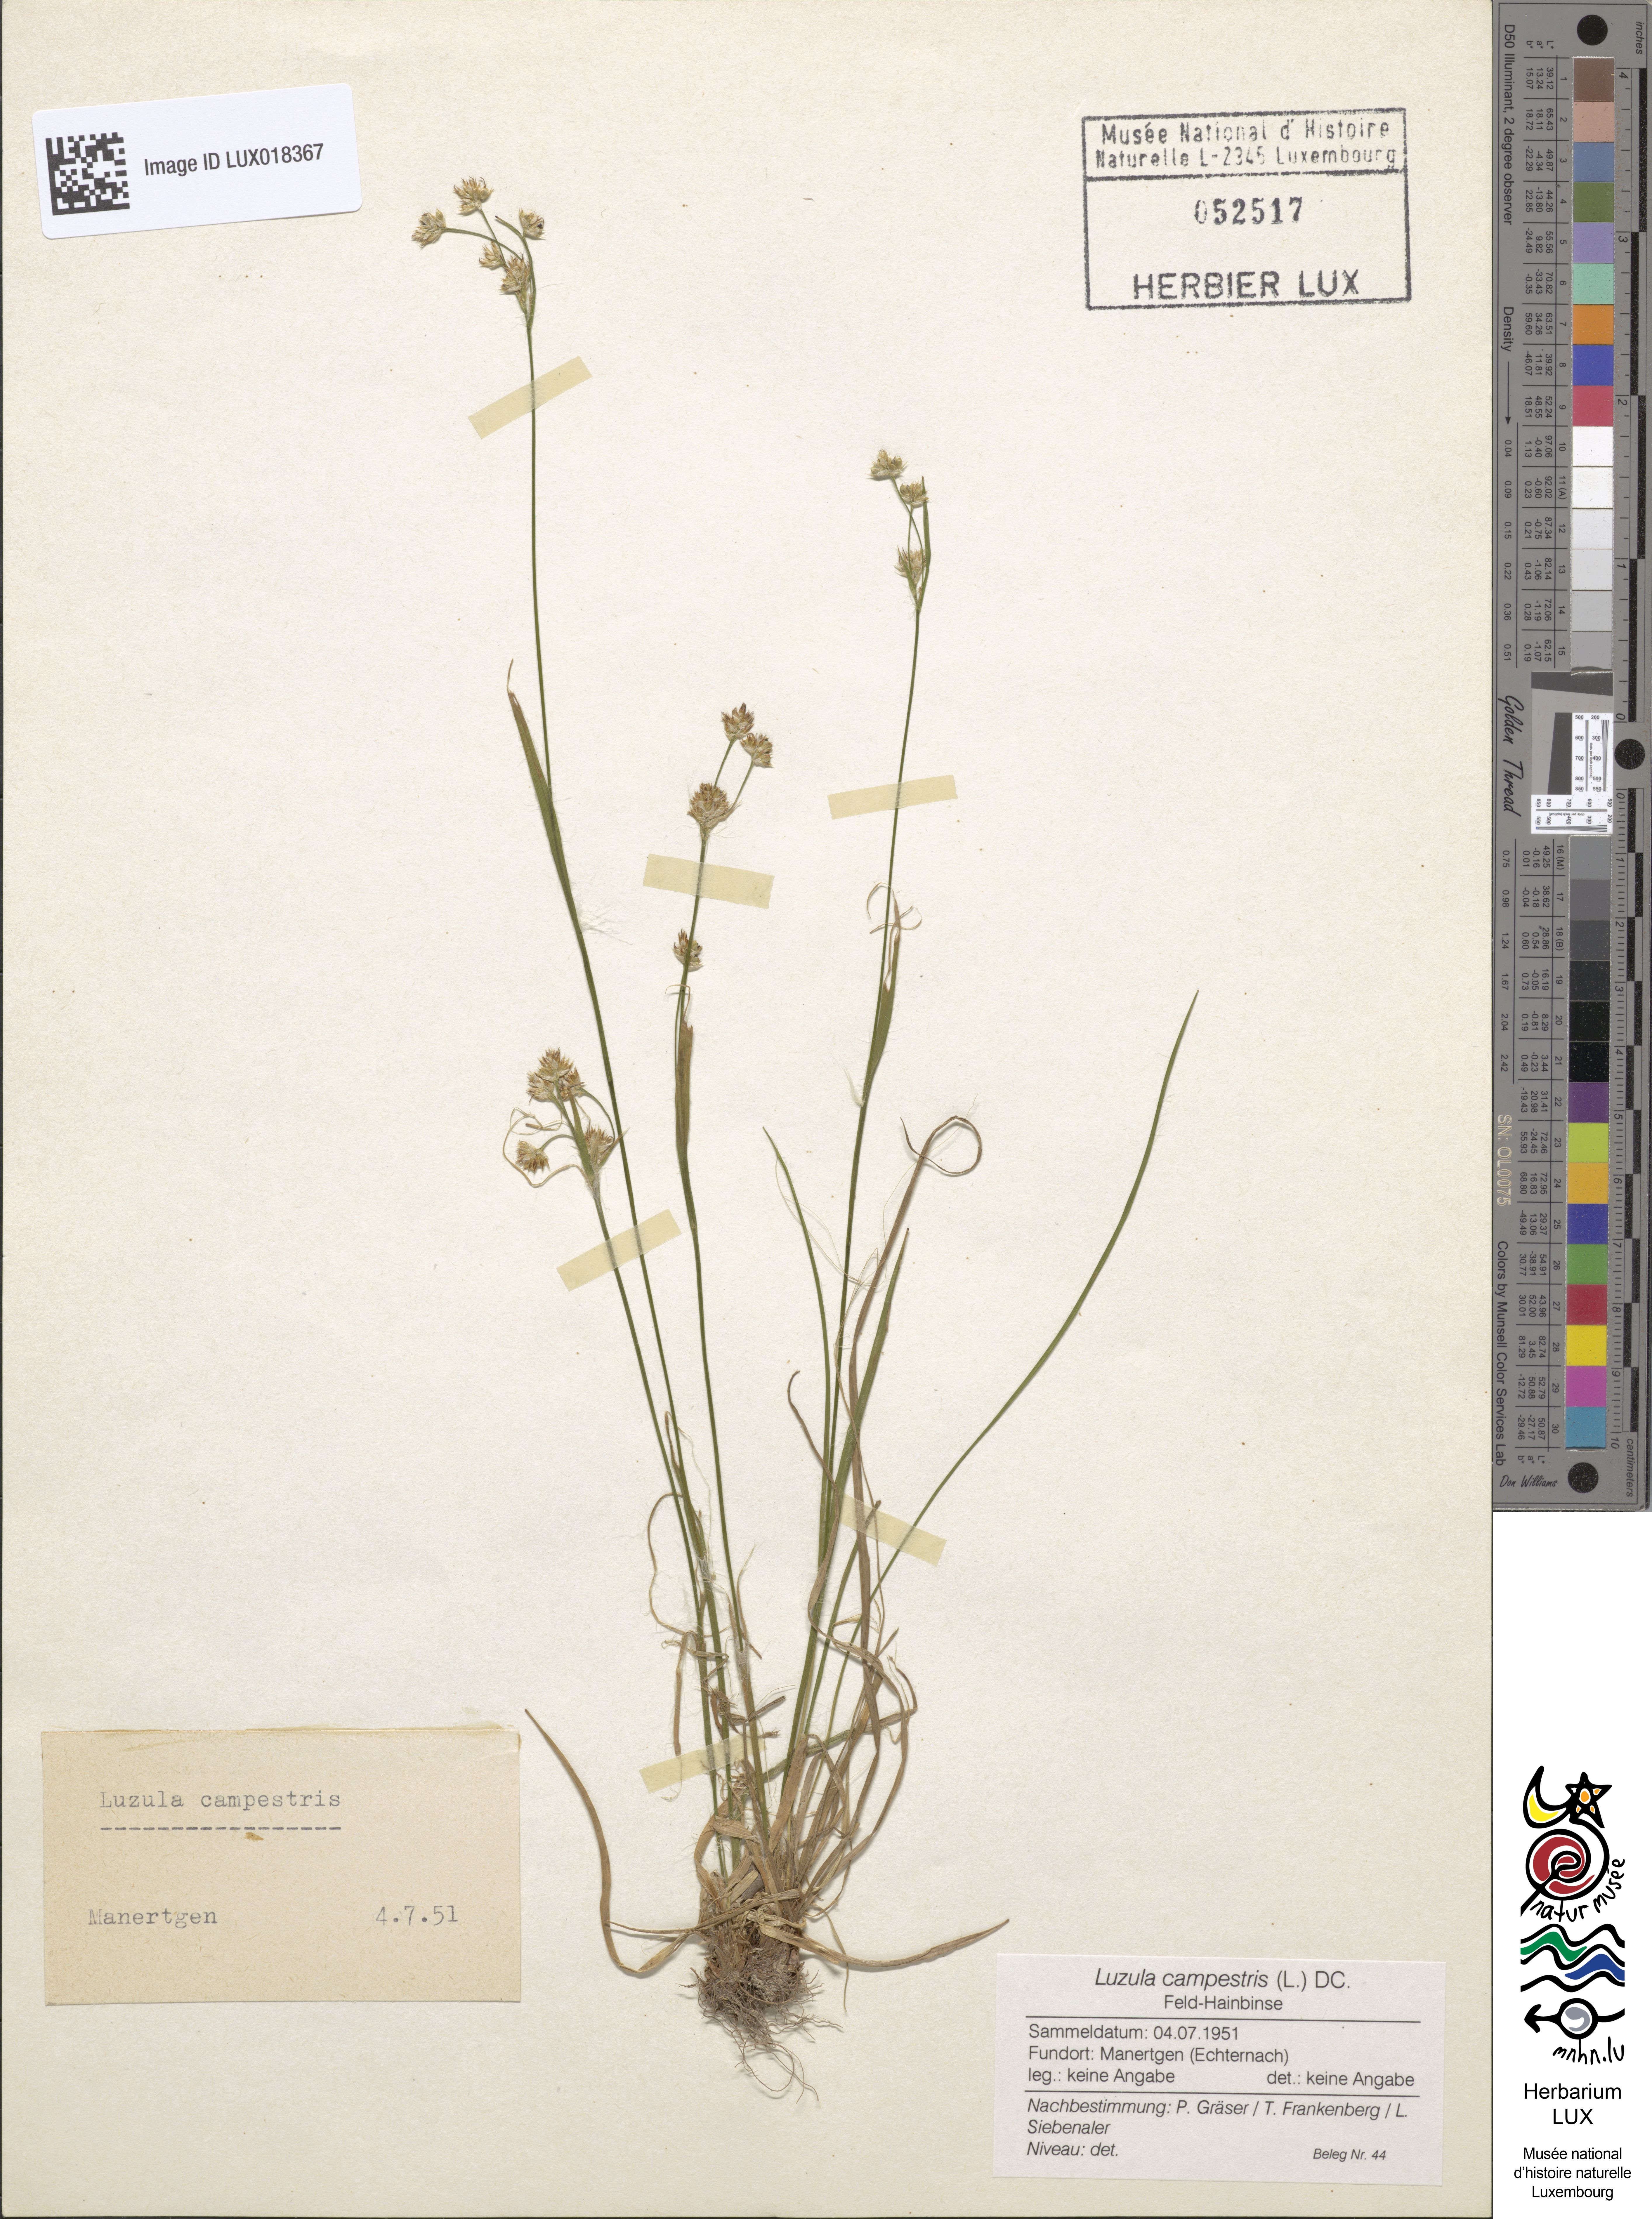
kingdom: Plantae
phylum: Tracheophyta
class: Liliopsida
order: Poales
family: Juncaceae
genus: Luzula
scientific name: Luzula campestris
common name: Field wood-rush
